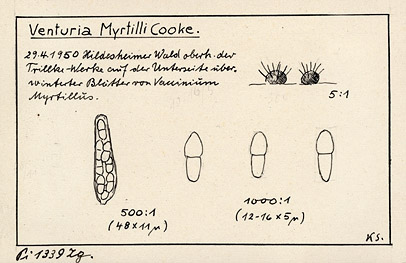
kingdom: Plantae
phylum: Tracheophyta
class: Magnoliopsida
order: Ericales
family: Ericaceae
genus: Vaccinium
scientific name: Vaccinium myrtillus
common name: Bilberry
